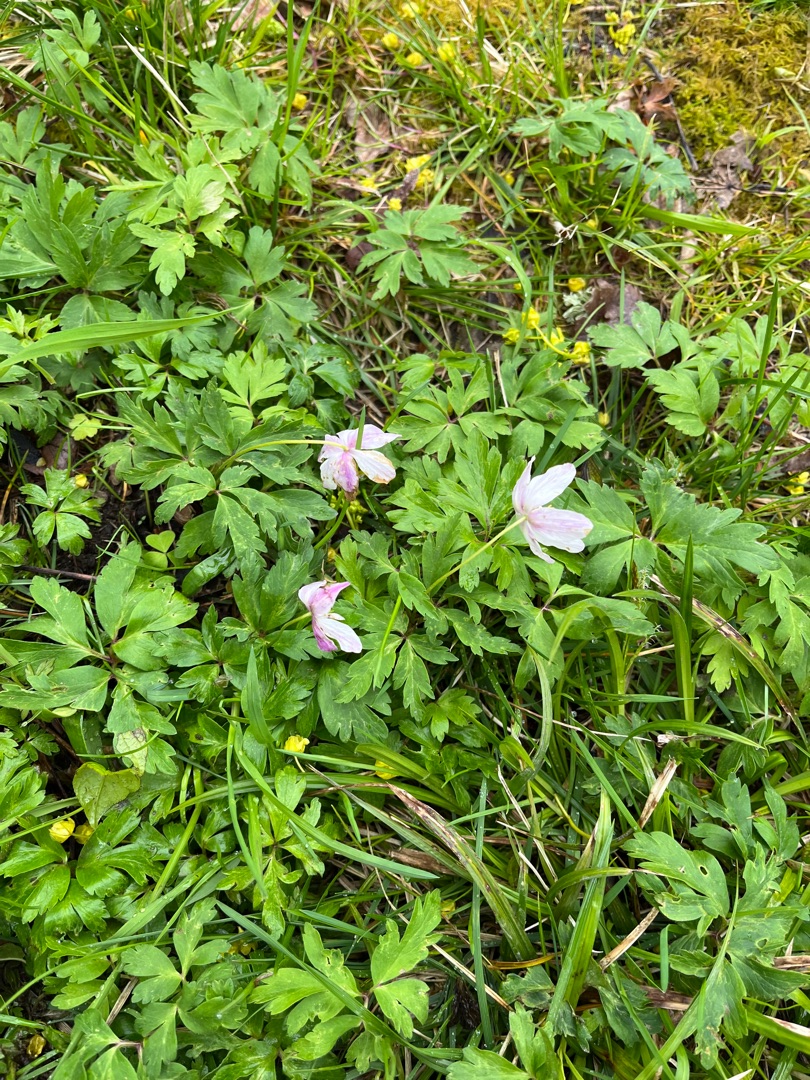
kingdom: Plantae
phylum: Tracheophyta
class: Magnoliopsida
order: Ranunculales
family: Ranunculaceae
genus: Anemone
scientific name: Anemone nemorosa
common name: Hvid anemone
